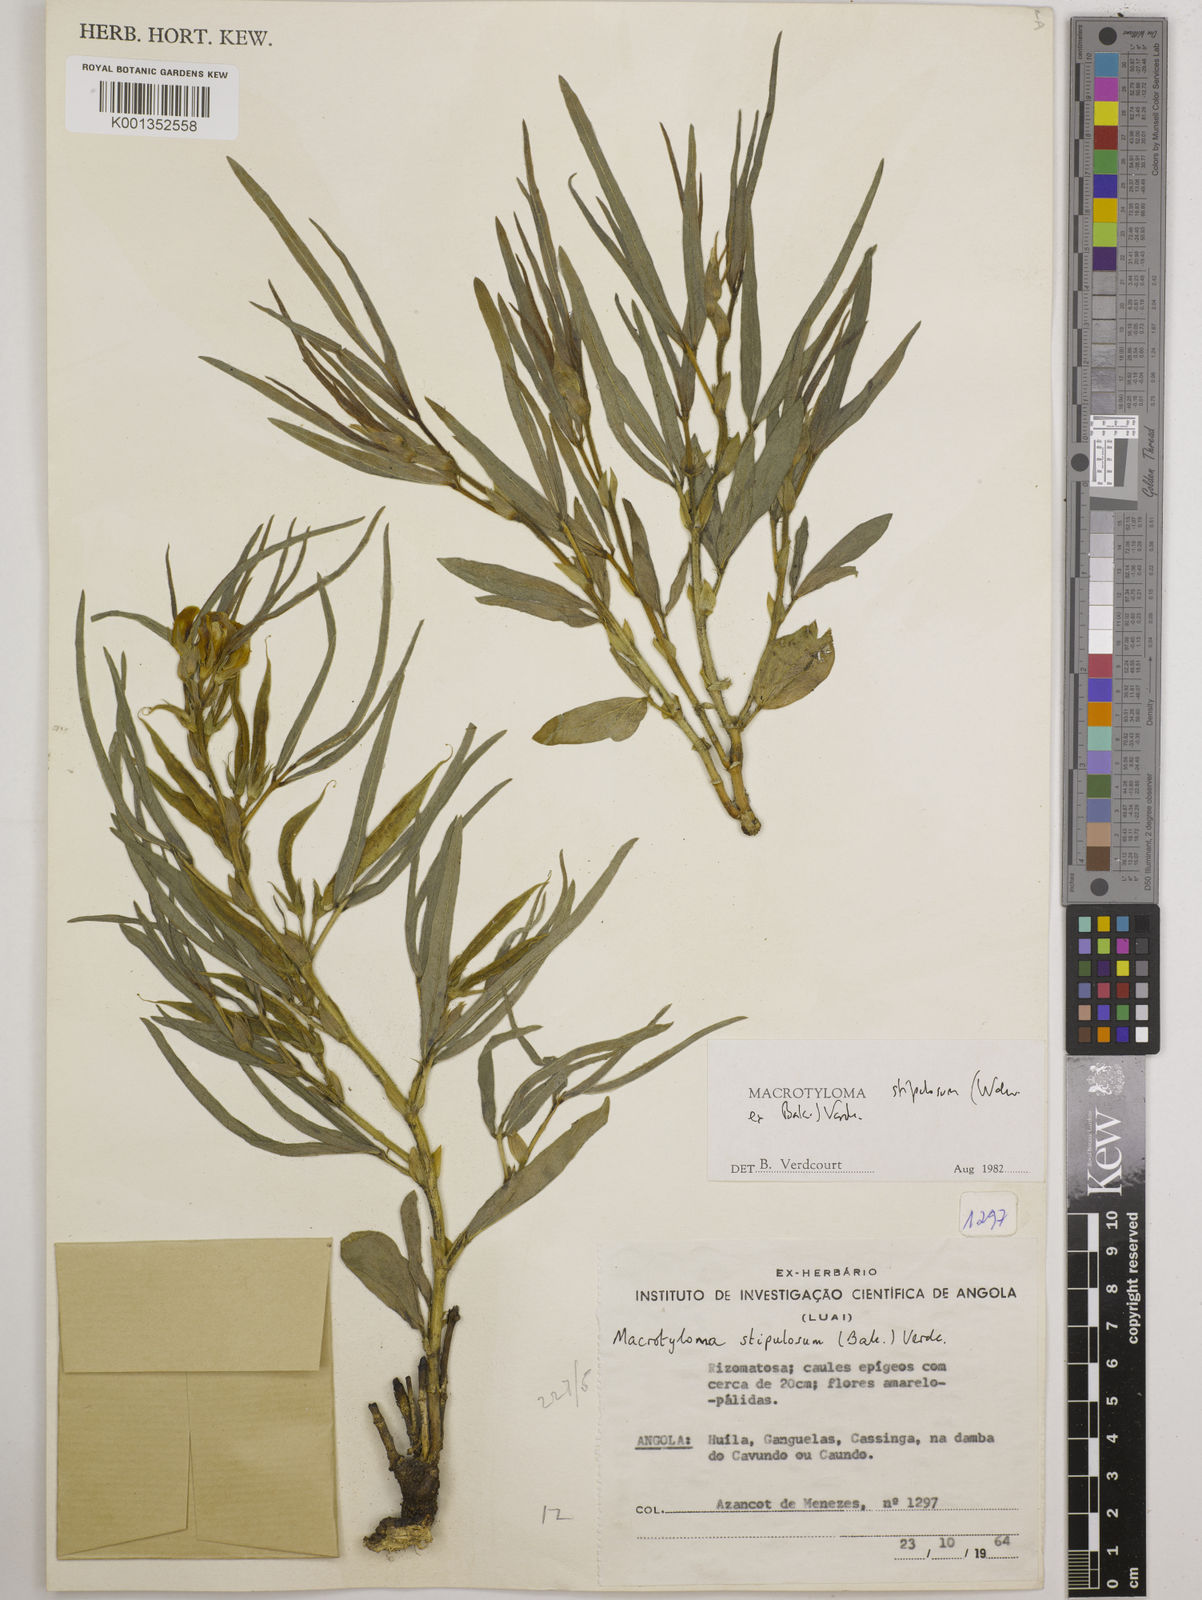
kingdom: Plantae
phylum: Tracheophyta
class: Magnoliopsida
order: Fabales
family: Fabaceae
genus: Macrotyloma
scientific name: Macrotyloma stipulosum
